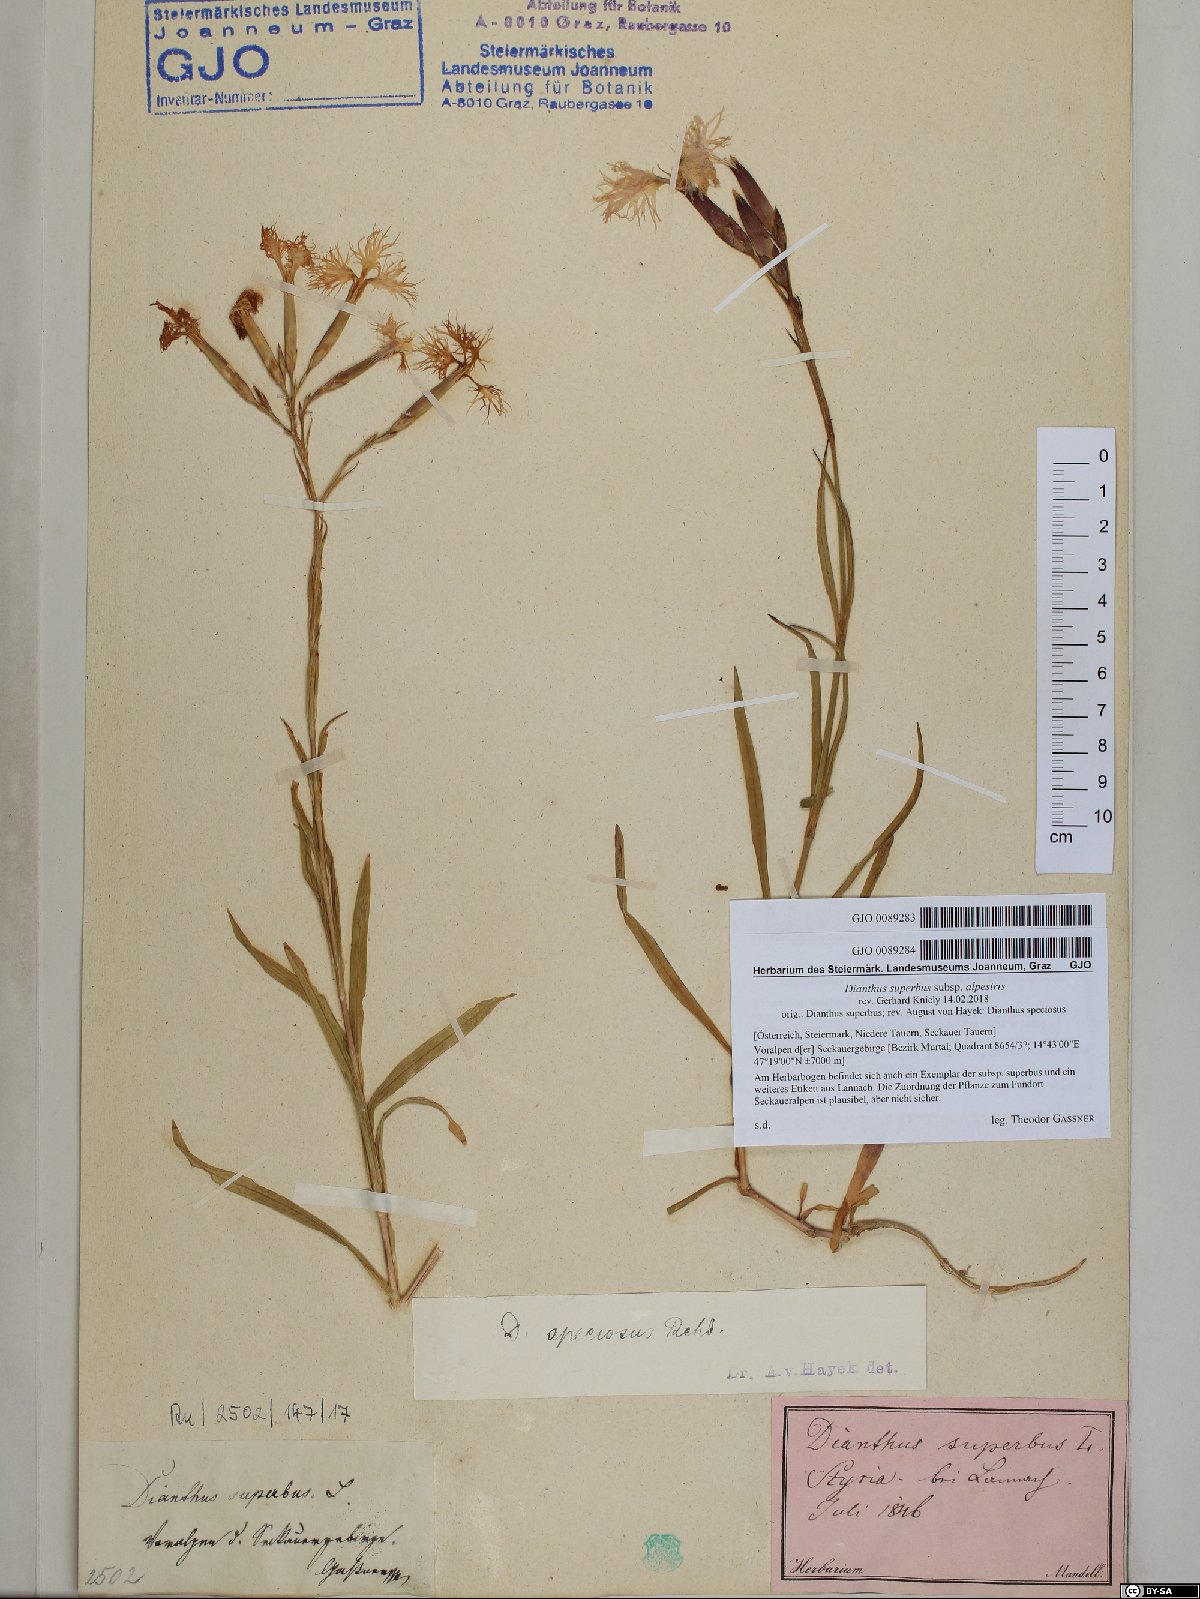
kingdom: Plantae
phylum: Tracheophyta
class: Magnoliopsida
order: Caryophyllales
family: Caryophyllaceae
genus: Dianthus
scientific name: Dianthus superbus
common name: Fringed pink
